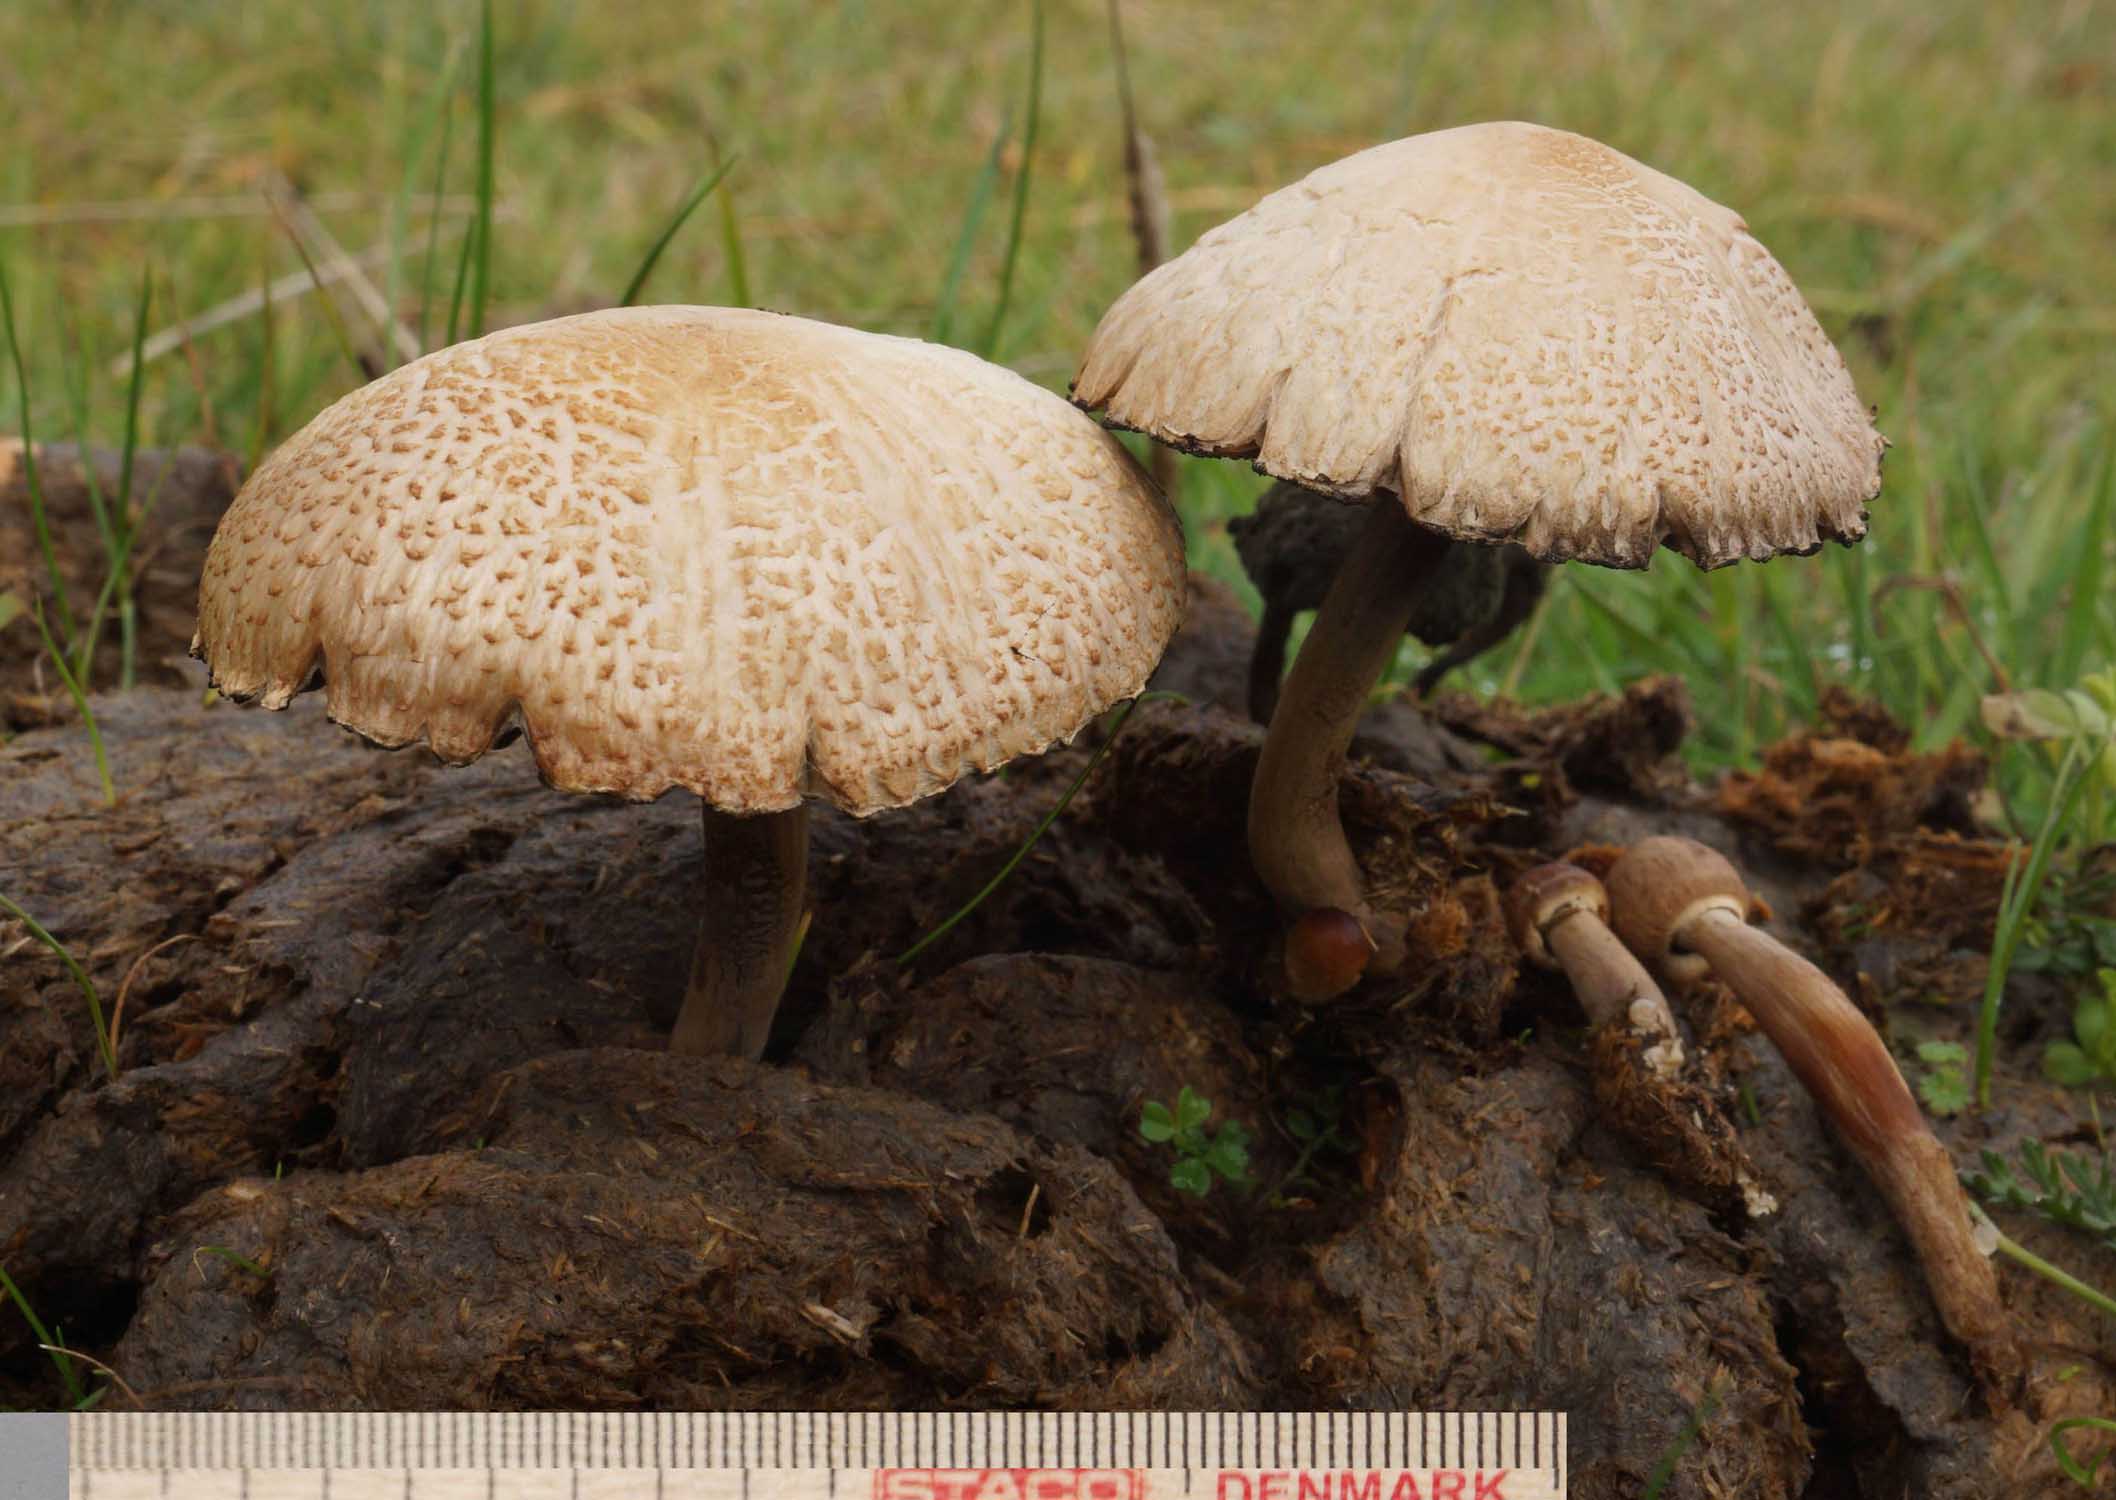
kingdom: Fungi
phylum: Basidiomycota
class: Agaricomycetes
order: Agaricales
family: Bolbitiaceae
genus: Panaeolus
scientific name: Panaeolus papilionaceus
